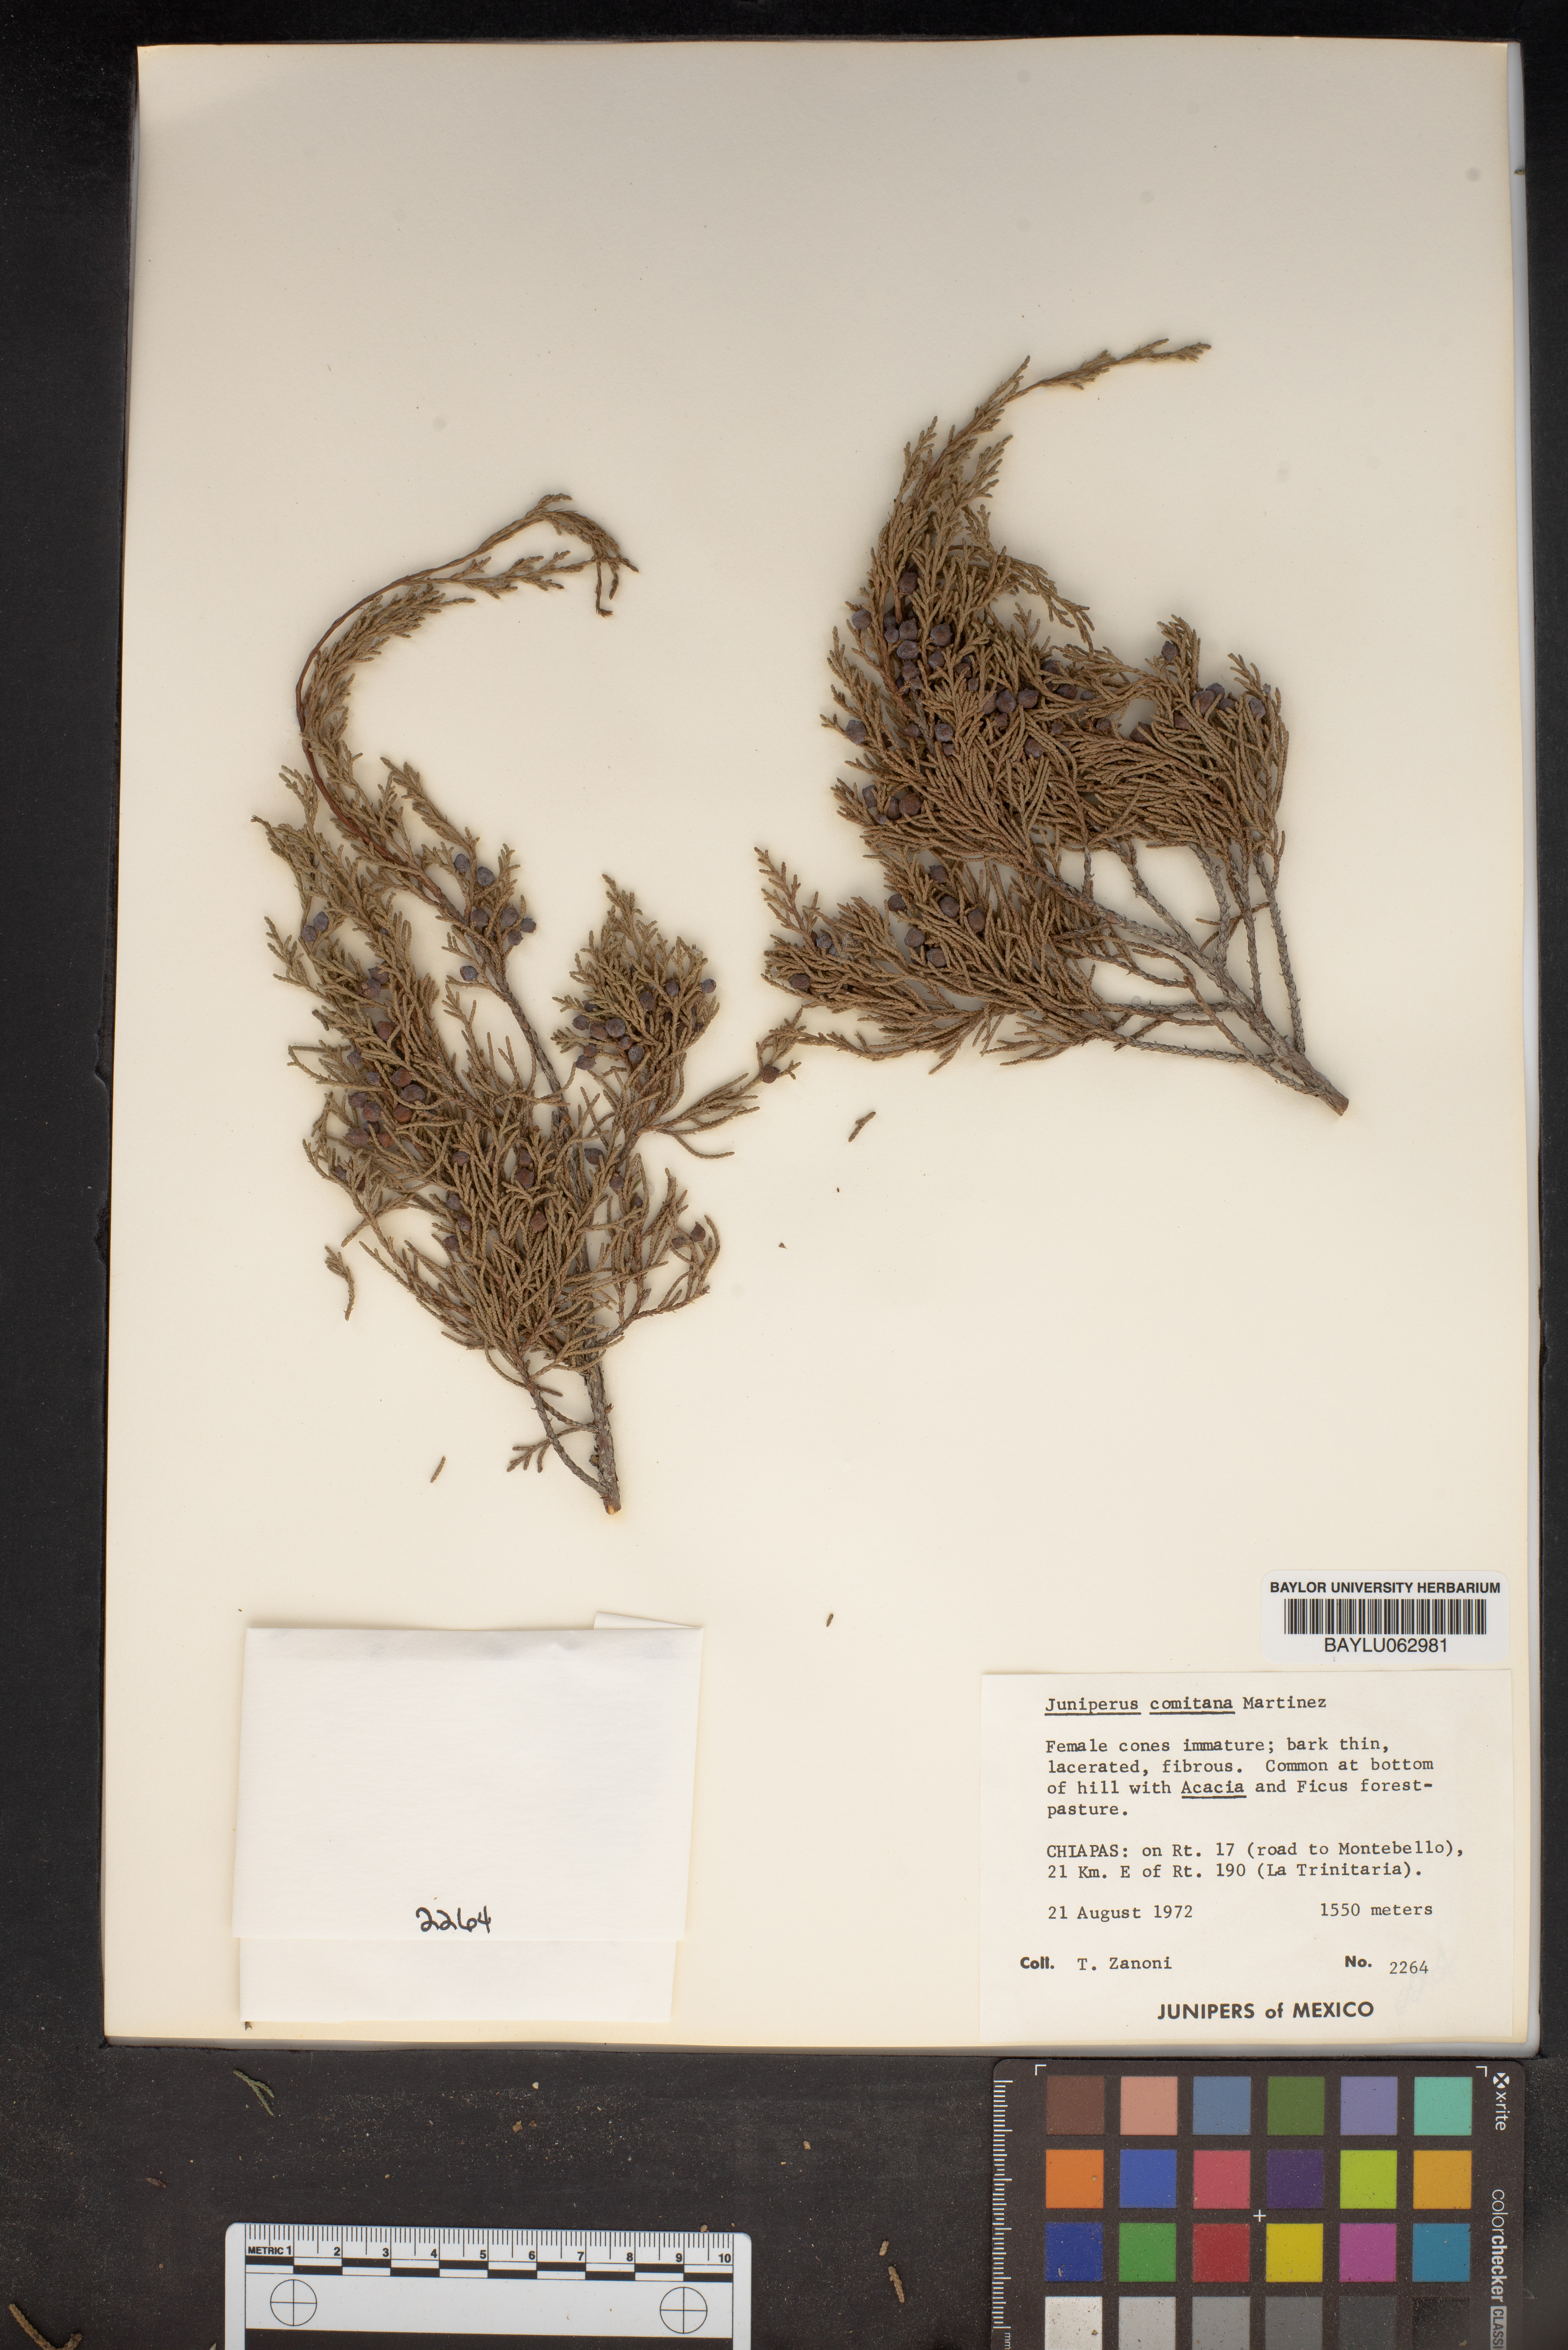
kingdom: Plantae
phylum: Tracheophyta
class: Pinopsida
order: Pinales
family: Cupressaceae
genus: Juniperus
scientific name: Juniperus comitana
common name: Comitan juniper
